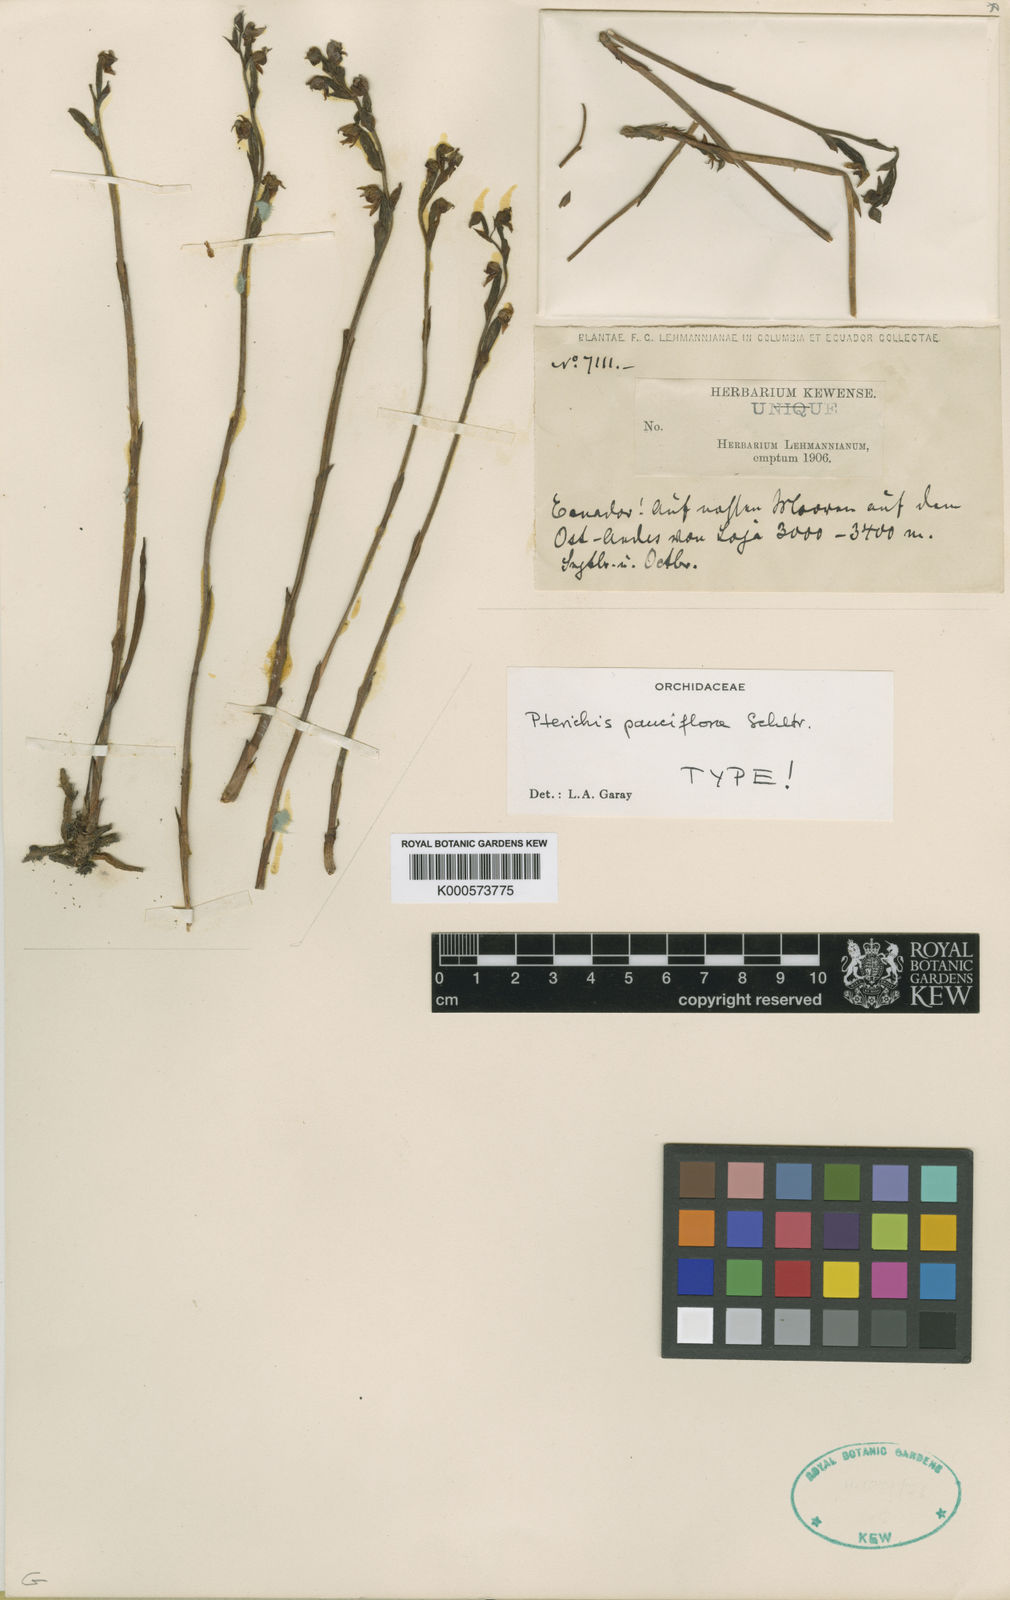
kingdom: Plantae
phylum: Tracheophyta
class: Liliopsida
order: Asparagales
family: Orchidaceae
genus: Pterichis
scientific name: Pterichis pauciflora
